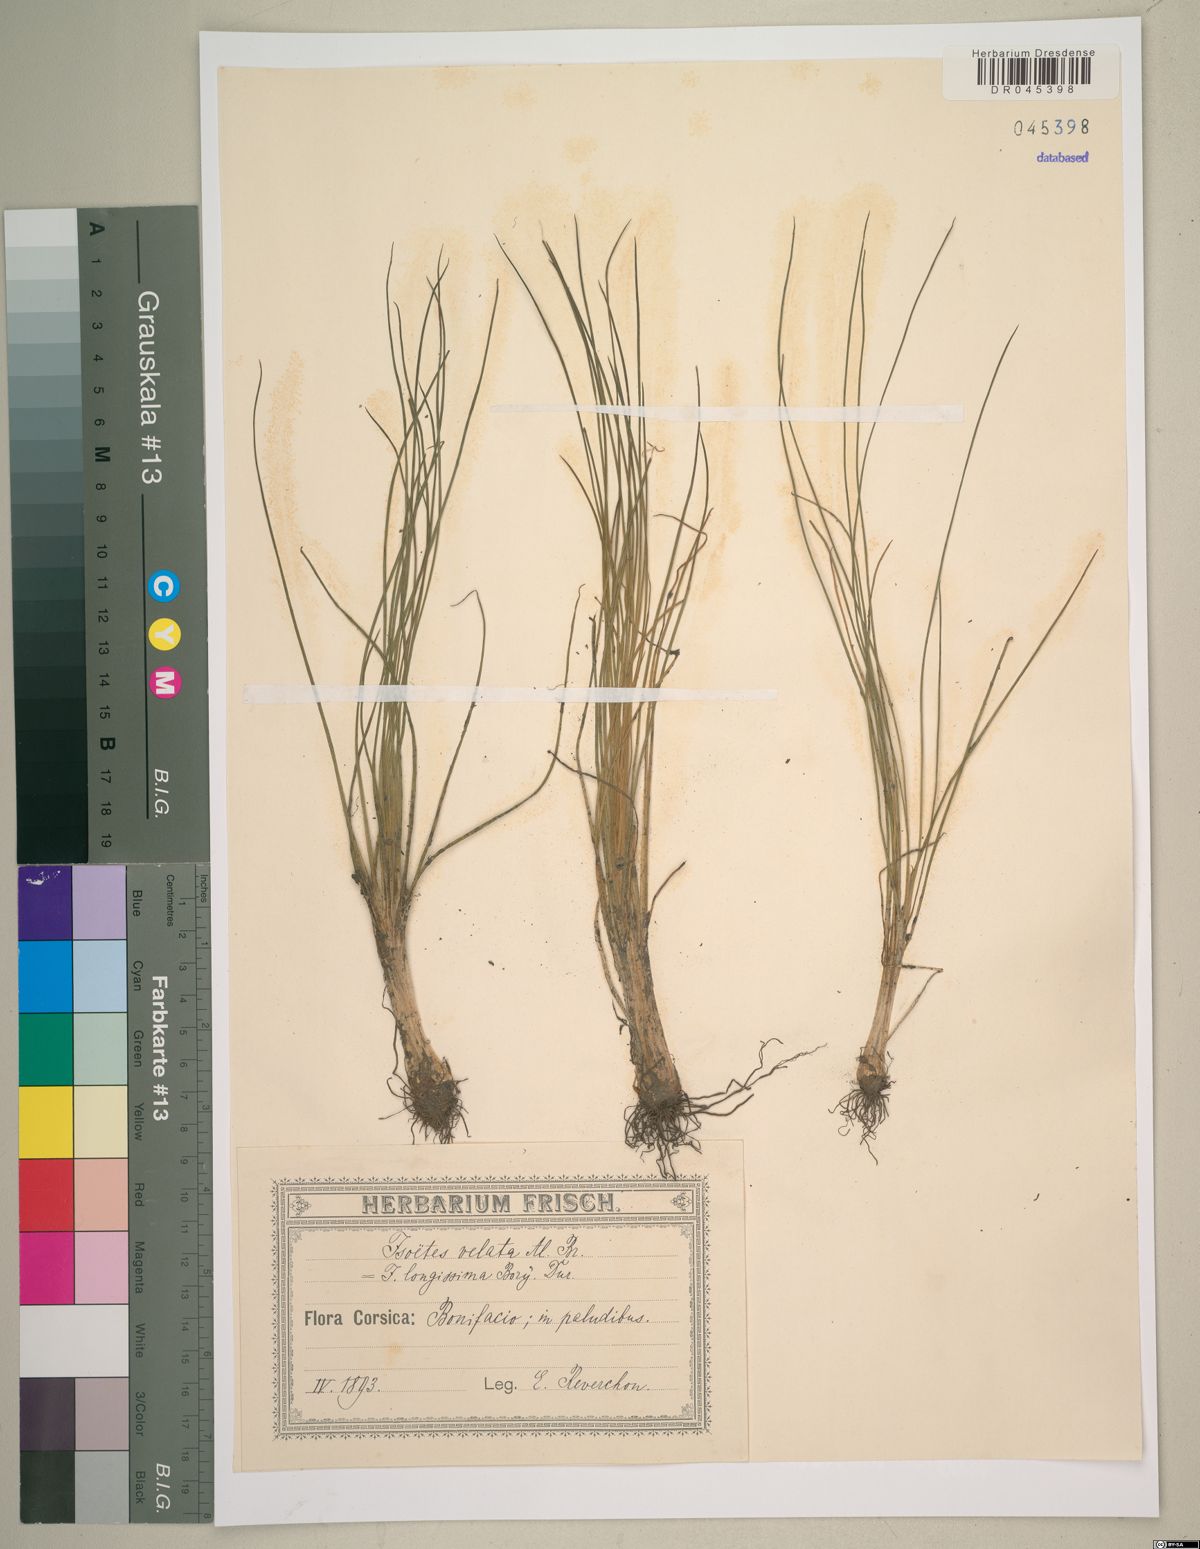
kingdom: Plantae
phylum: Tracheophyta
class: Lycopodiopsida
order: Isoetales
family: Isoetaceae
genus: Isoetes
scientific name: Isoetes longissima
